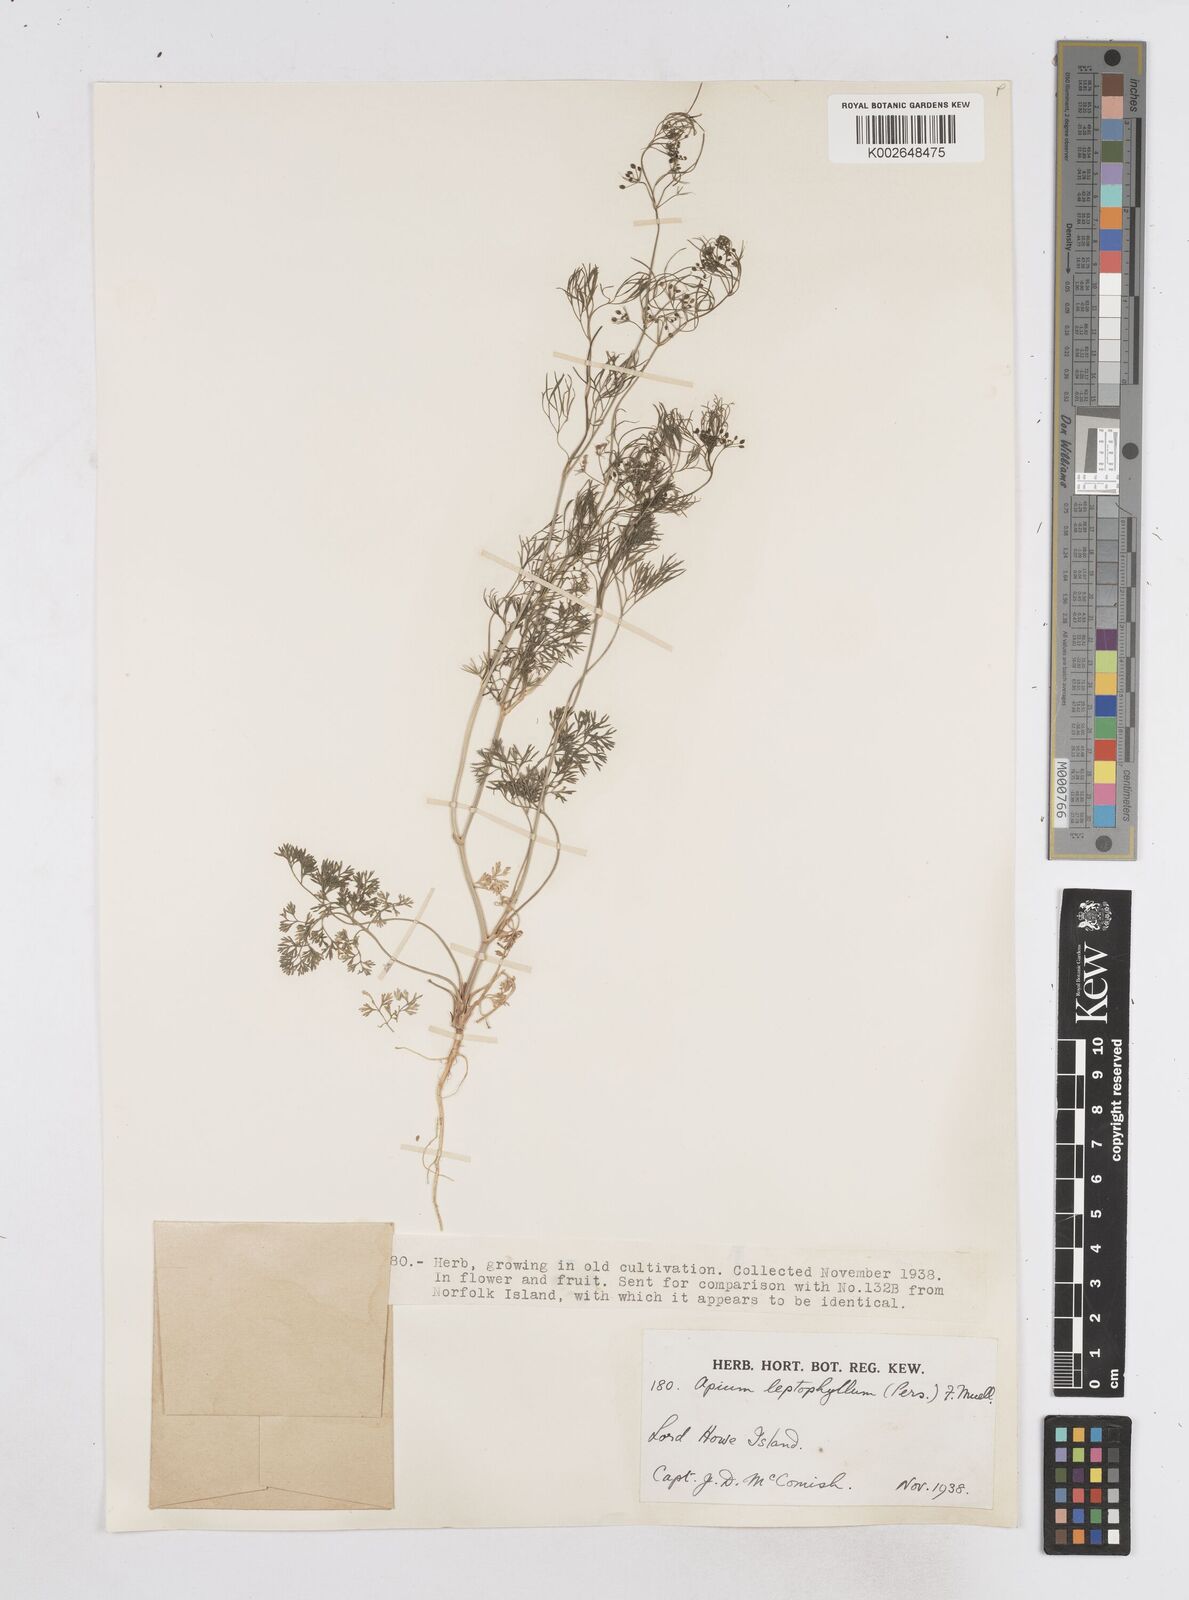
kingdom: Plantae
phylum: Tracheophyta
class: Magnoliopsida
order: Apiales
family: Apiaceae
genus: Cyclospermum
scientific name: Cyclospermum leptophyllum
